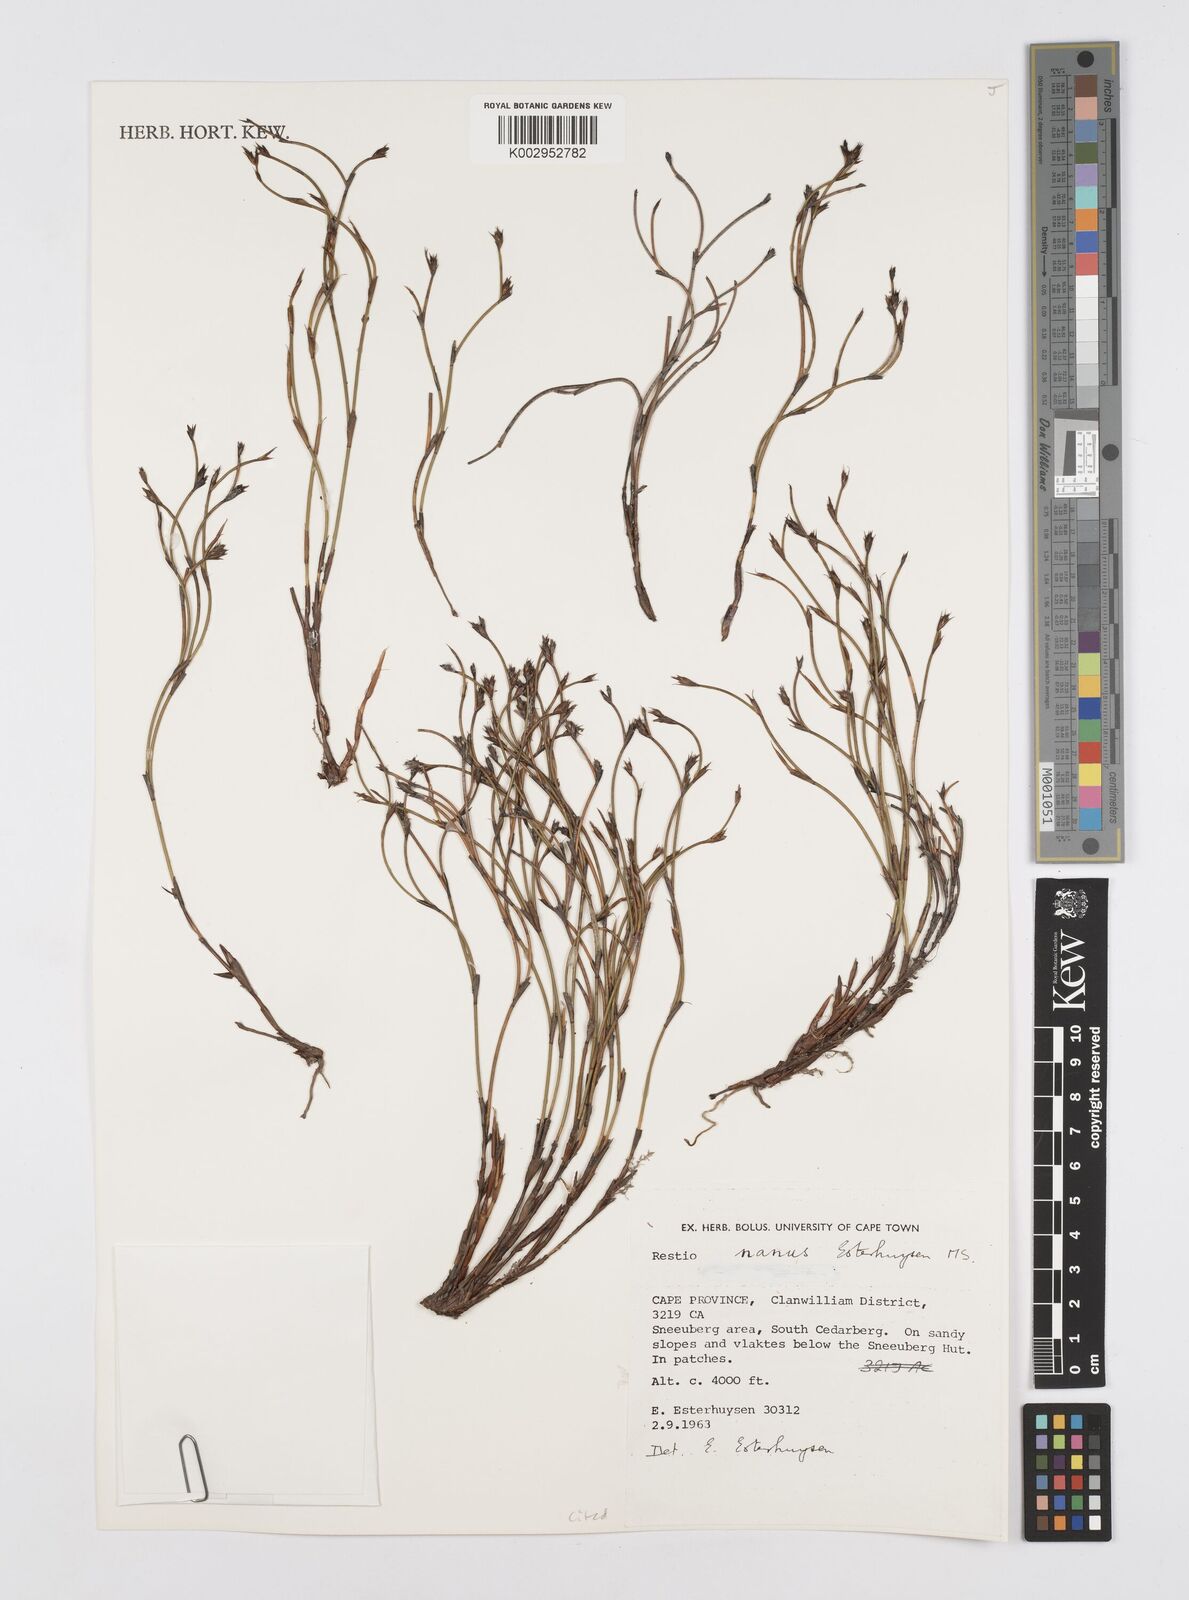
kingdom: Plantae
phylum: Tracheophyta
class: Liliopsida
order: Poales
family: Restionaceae
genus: Restio
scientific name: Restio nanus
